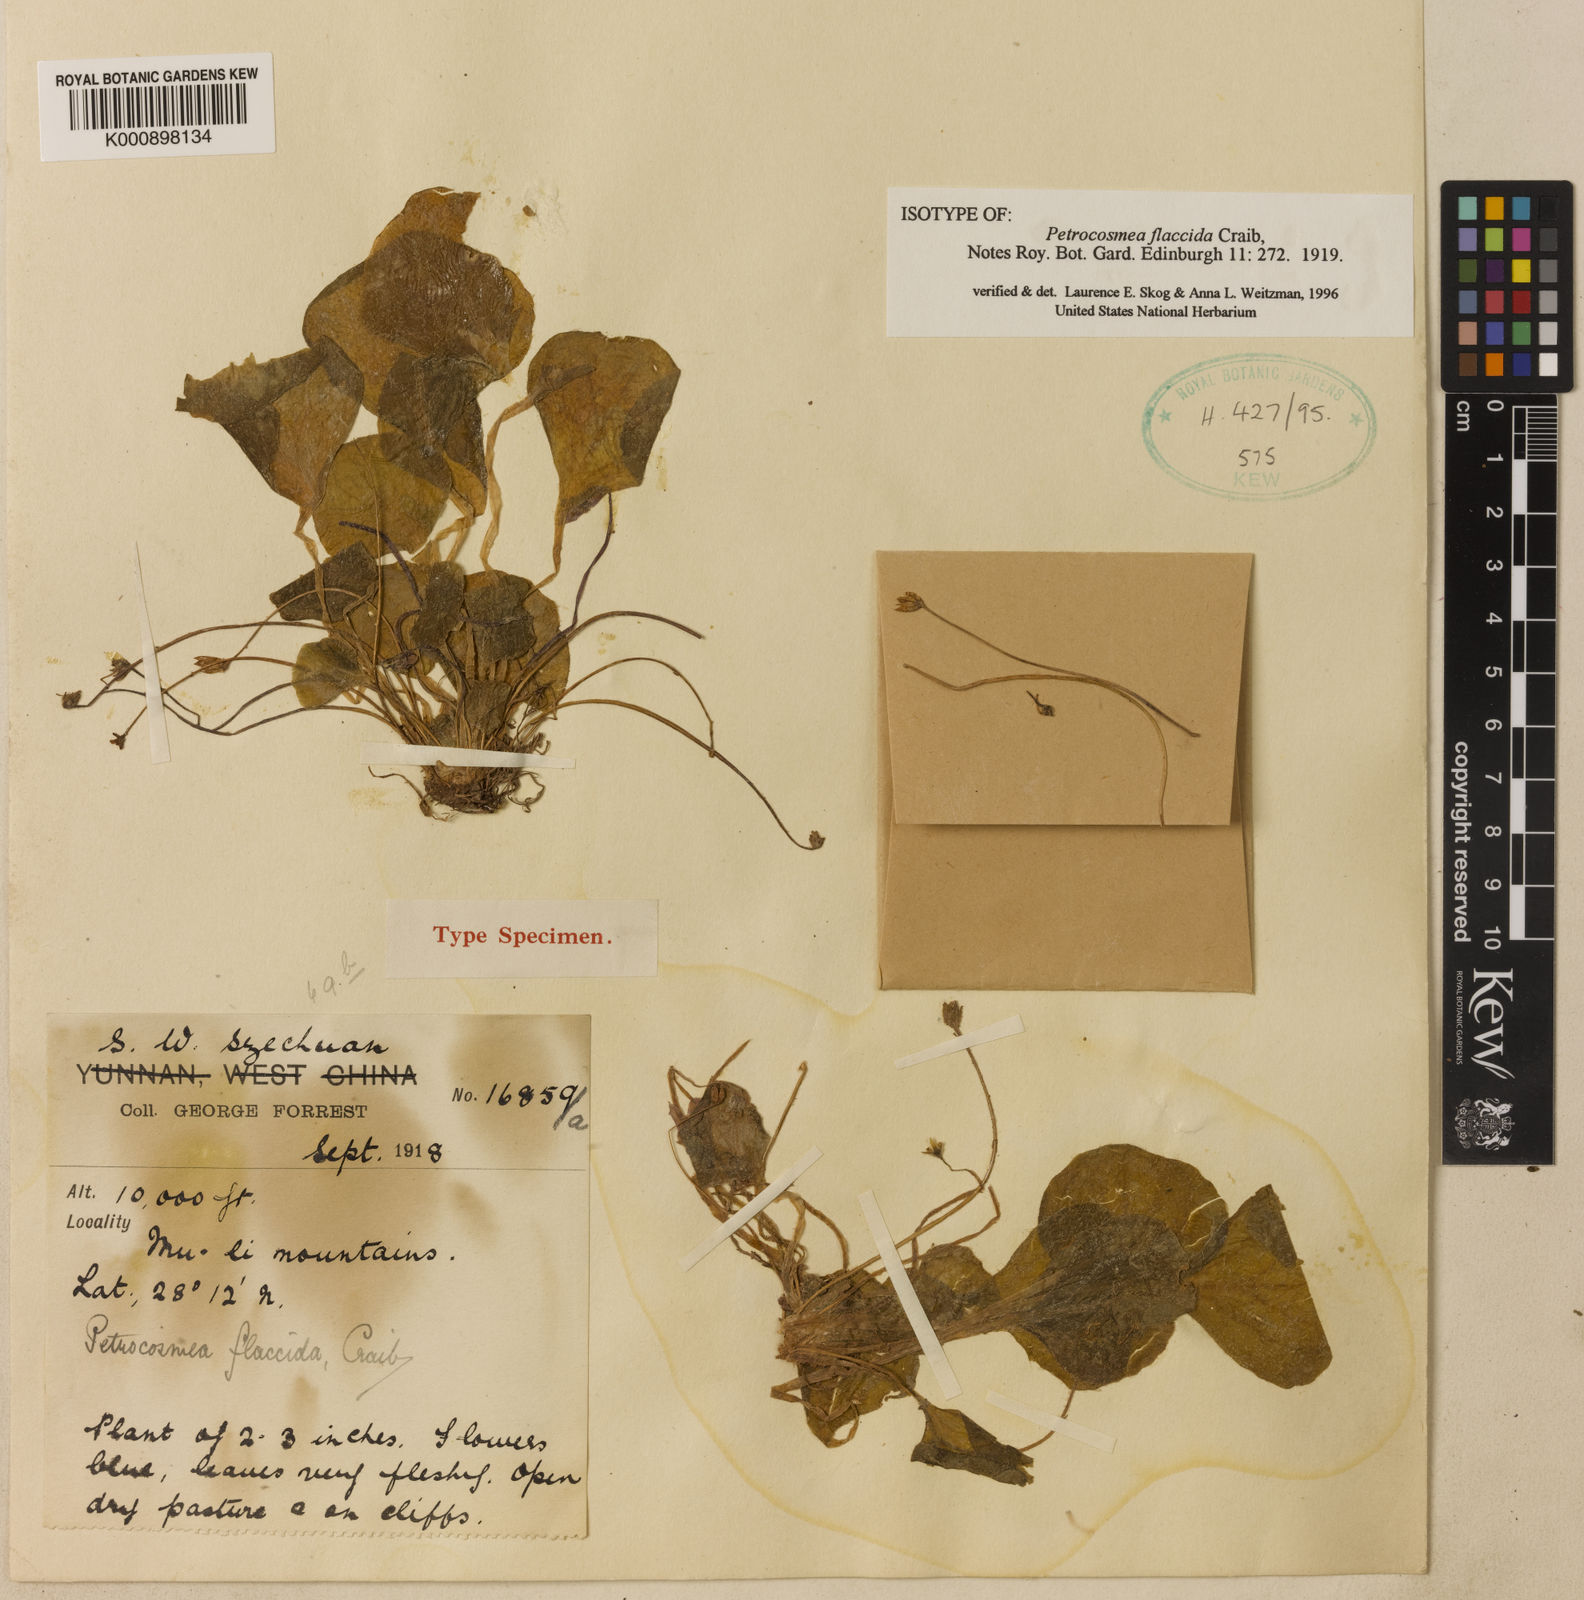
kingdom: Plantae
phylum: Tracheophyta
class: Magnoliopsida
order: Lamiales
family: Gesneriaceae
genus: Petrocosmea
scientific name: Petrocosmea flaccida
